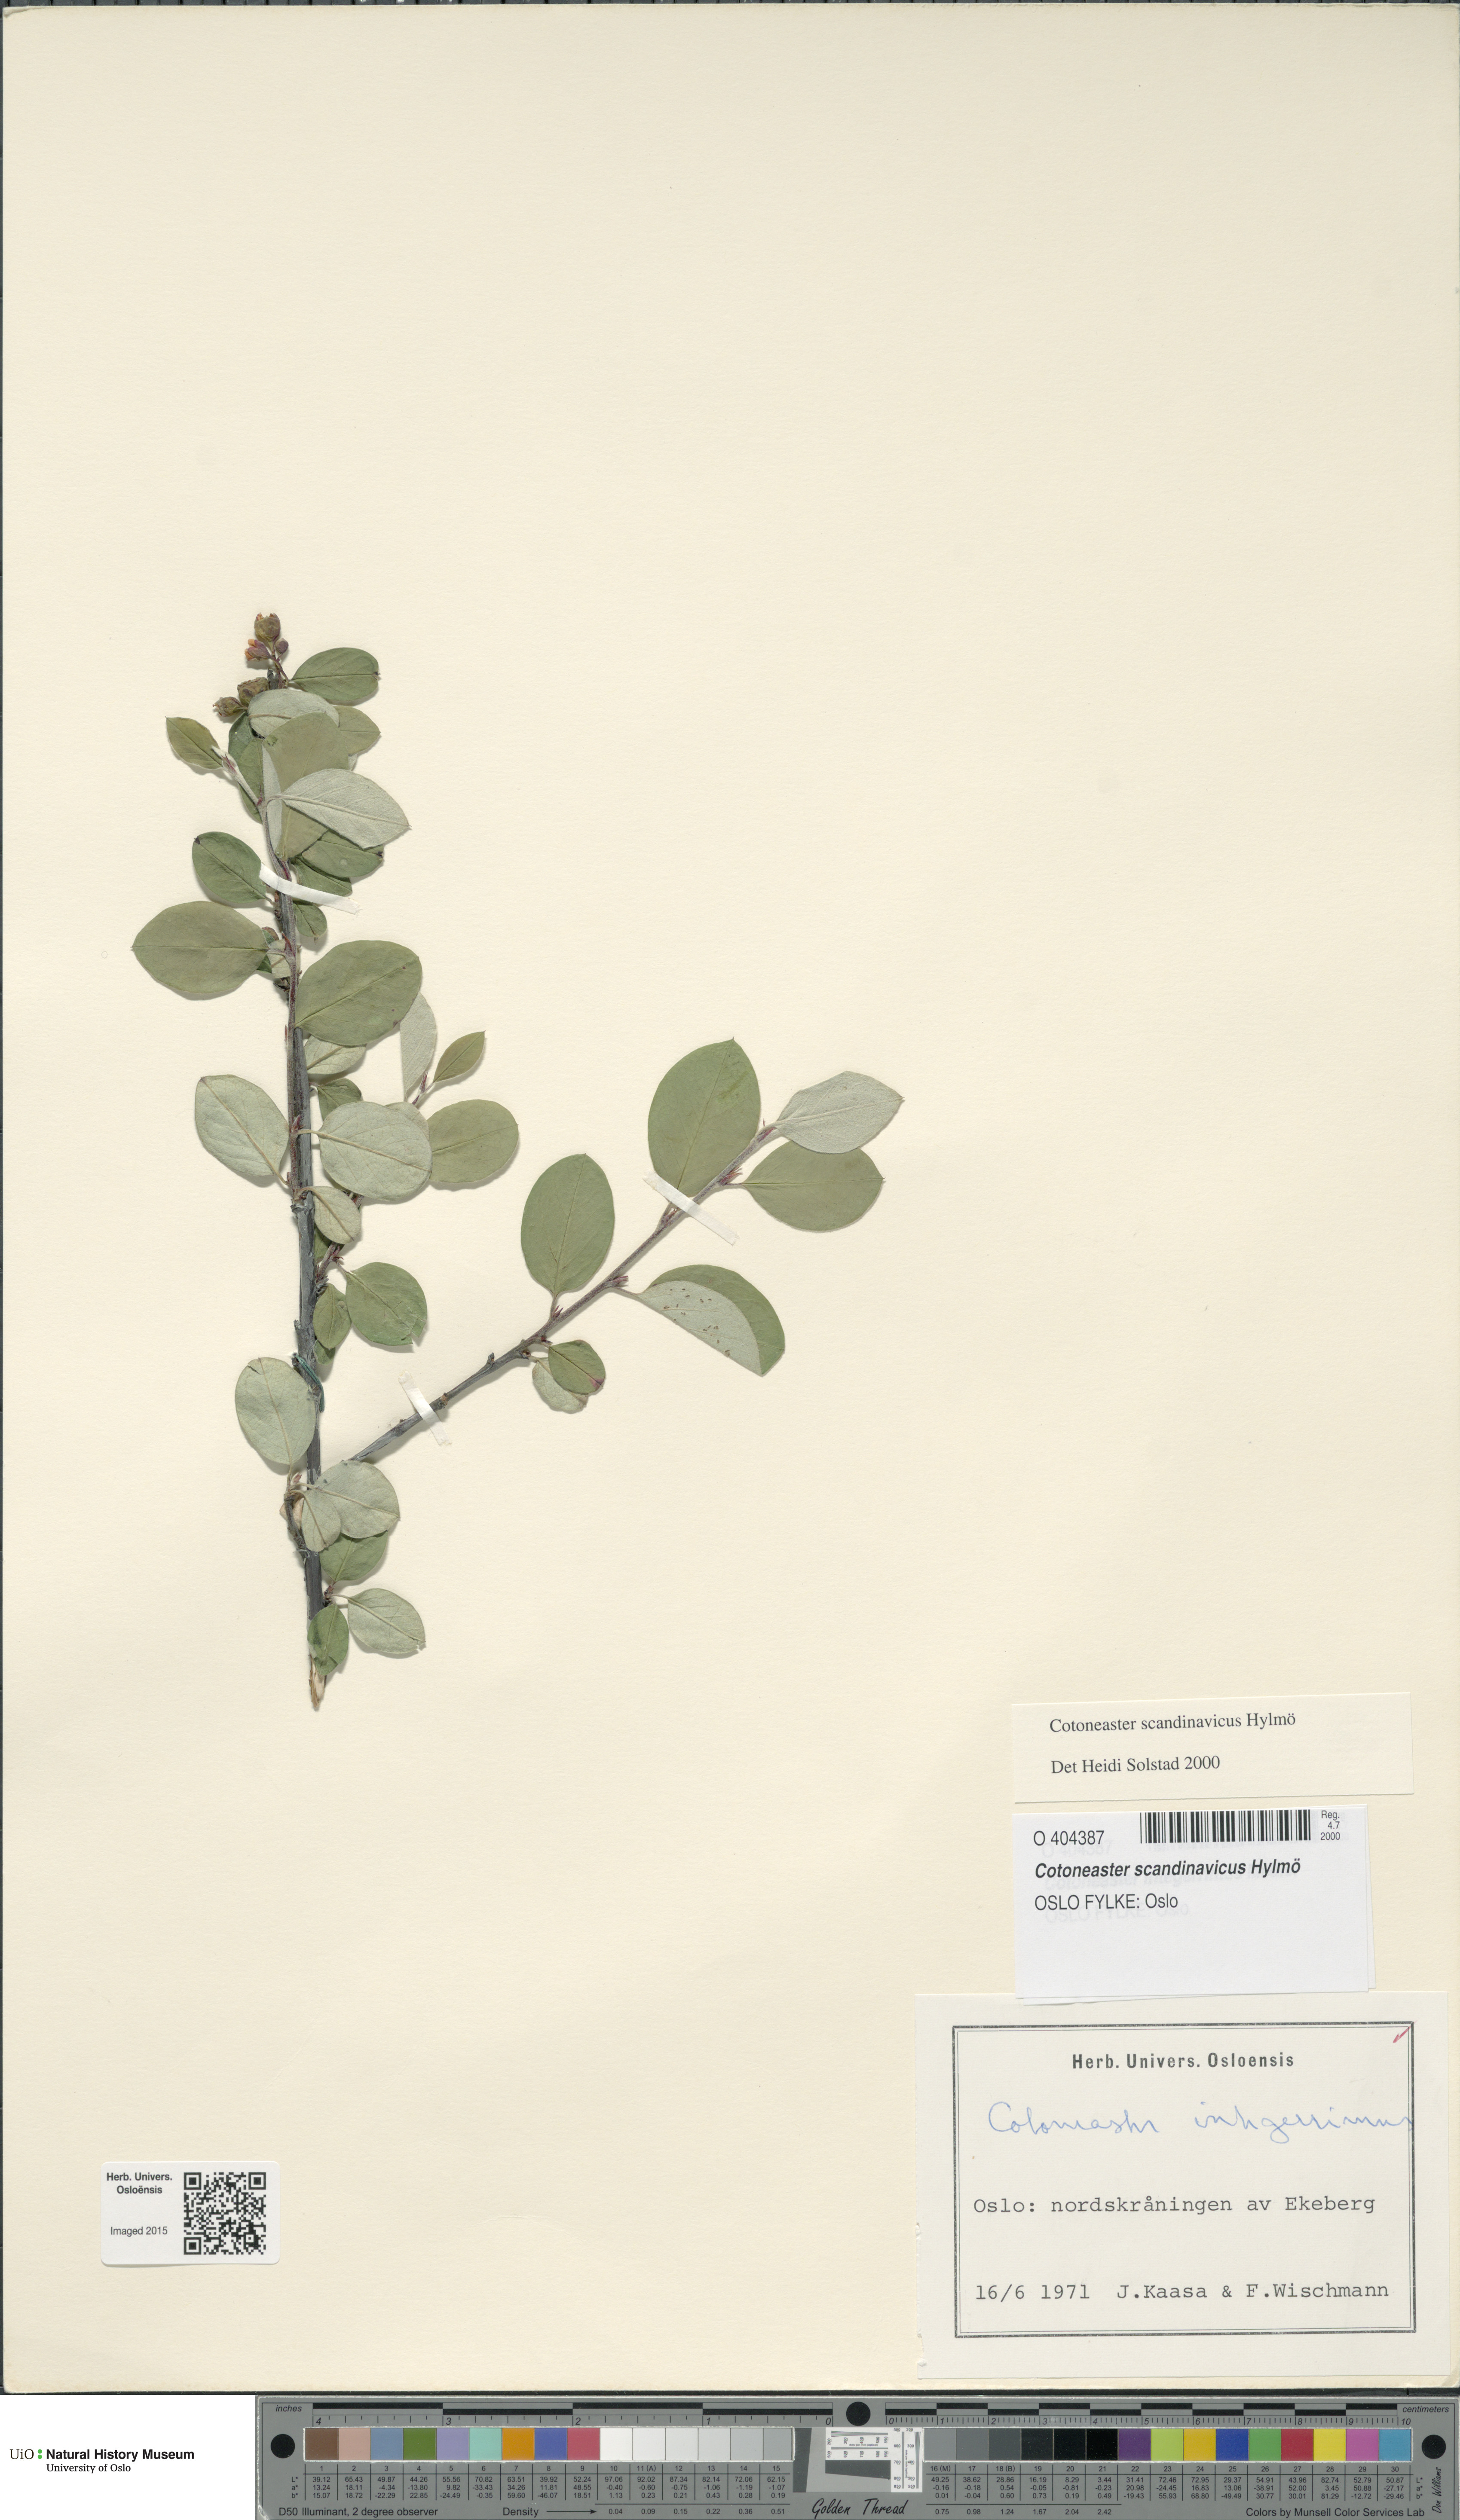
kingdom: Plantae
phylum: Tracheophyta
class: Magnoliopsida
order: Rosales
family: Rosaceae
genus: Cotoneaster
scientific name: Cotoneaster integerrimus
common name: Wild cotoneaster
